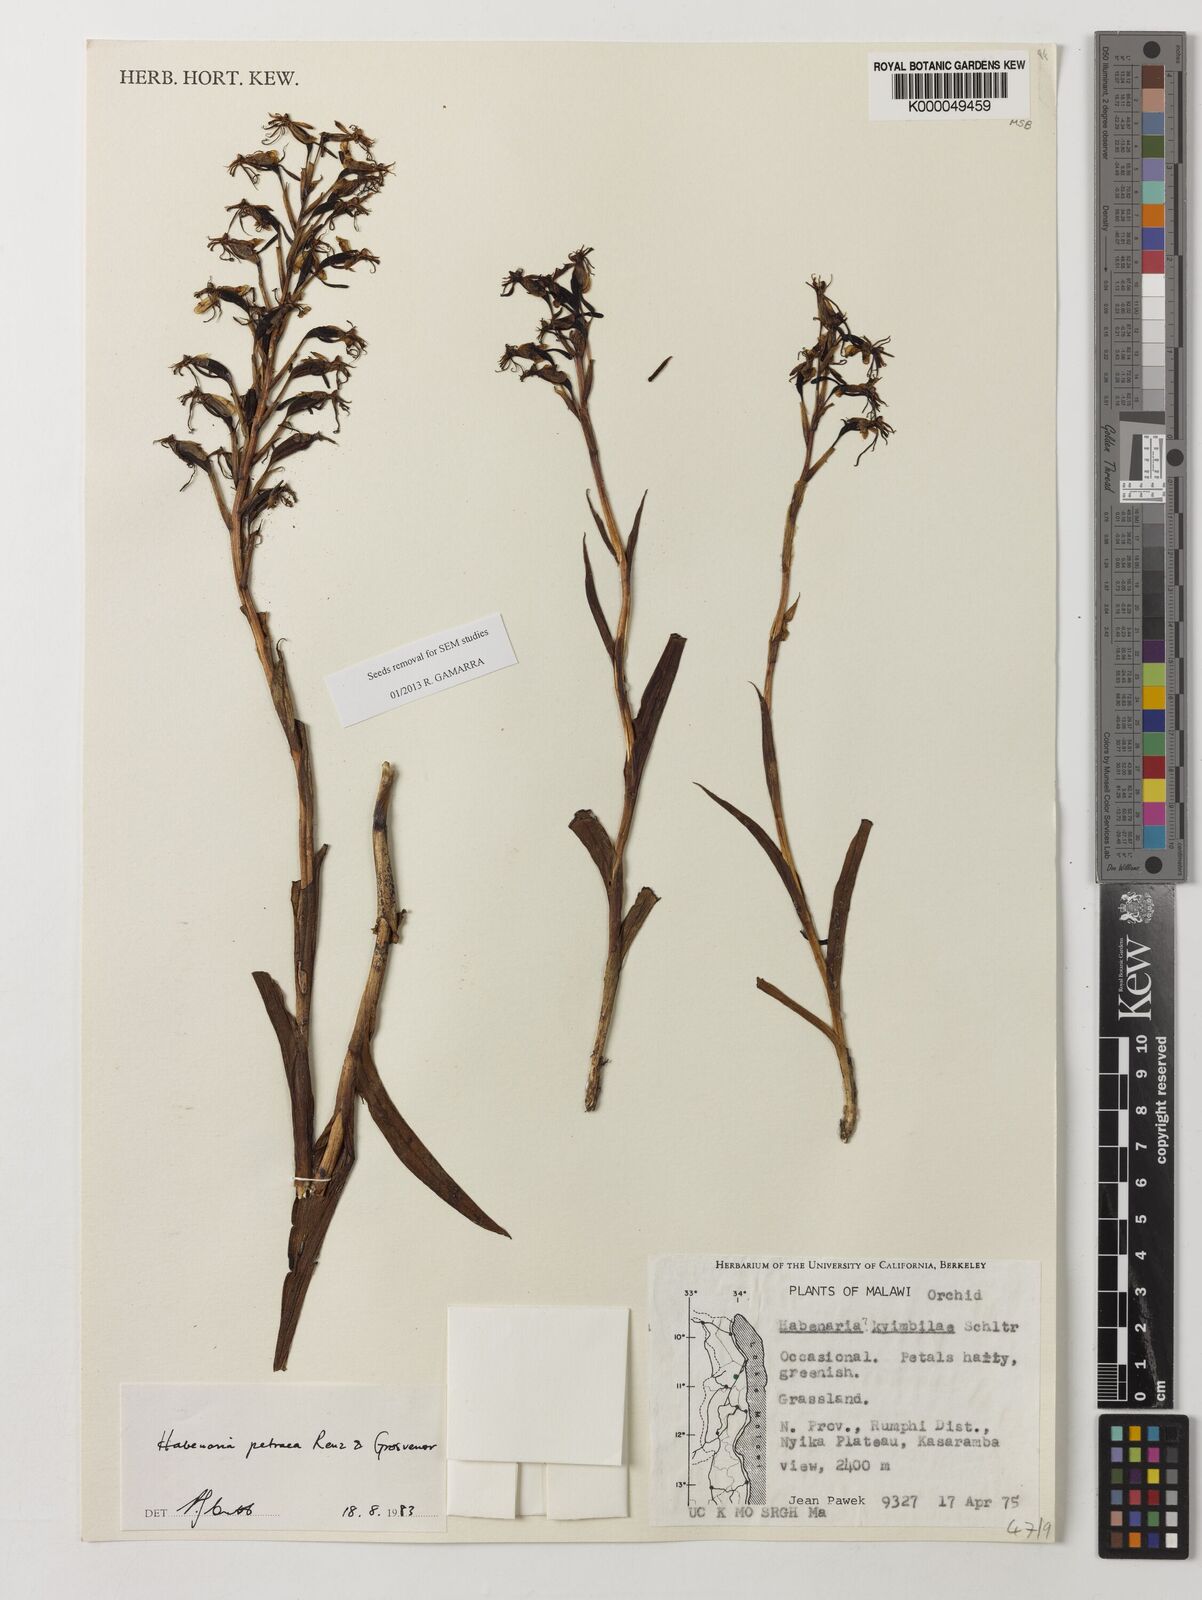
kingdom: Plantae
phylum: Tracheophyta
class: Liliopsida
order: Asparagales
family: Orchidaceae
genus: Habenaria
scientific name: Habenaria petraea
